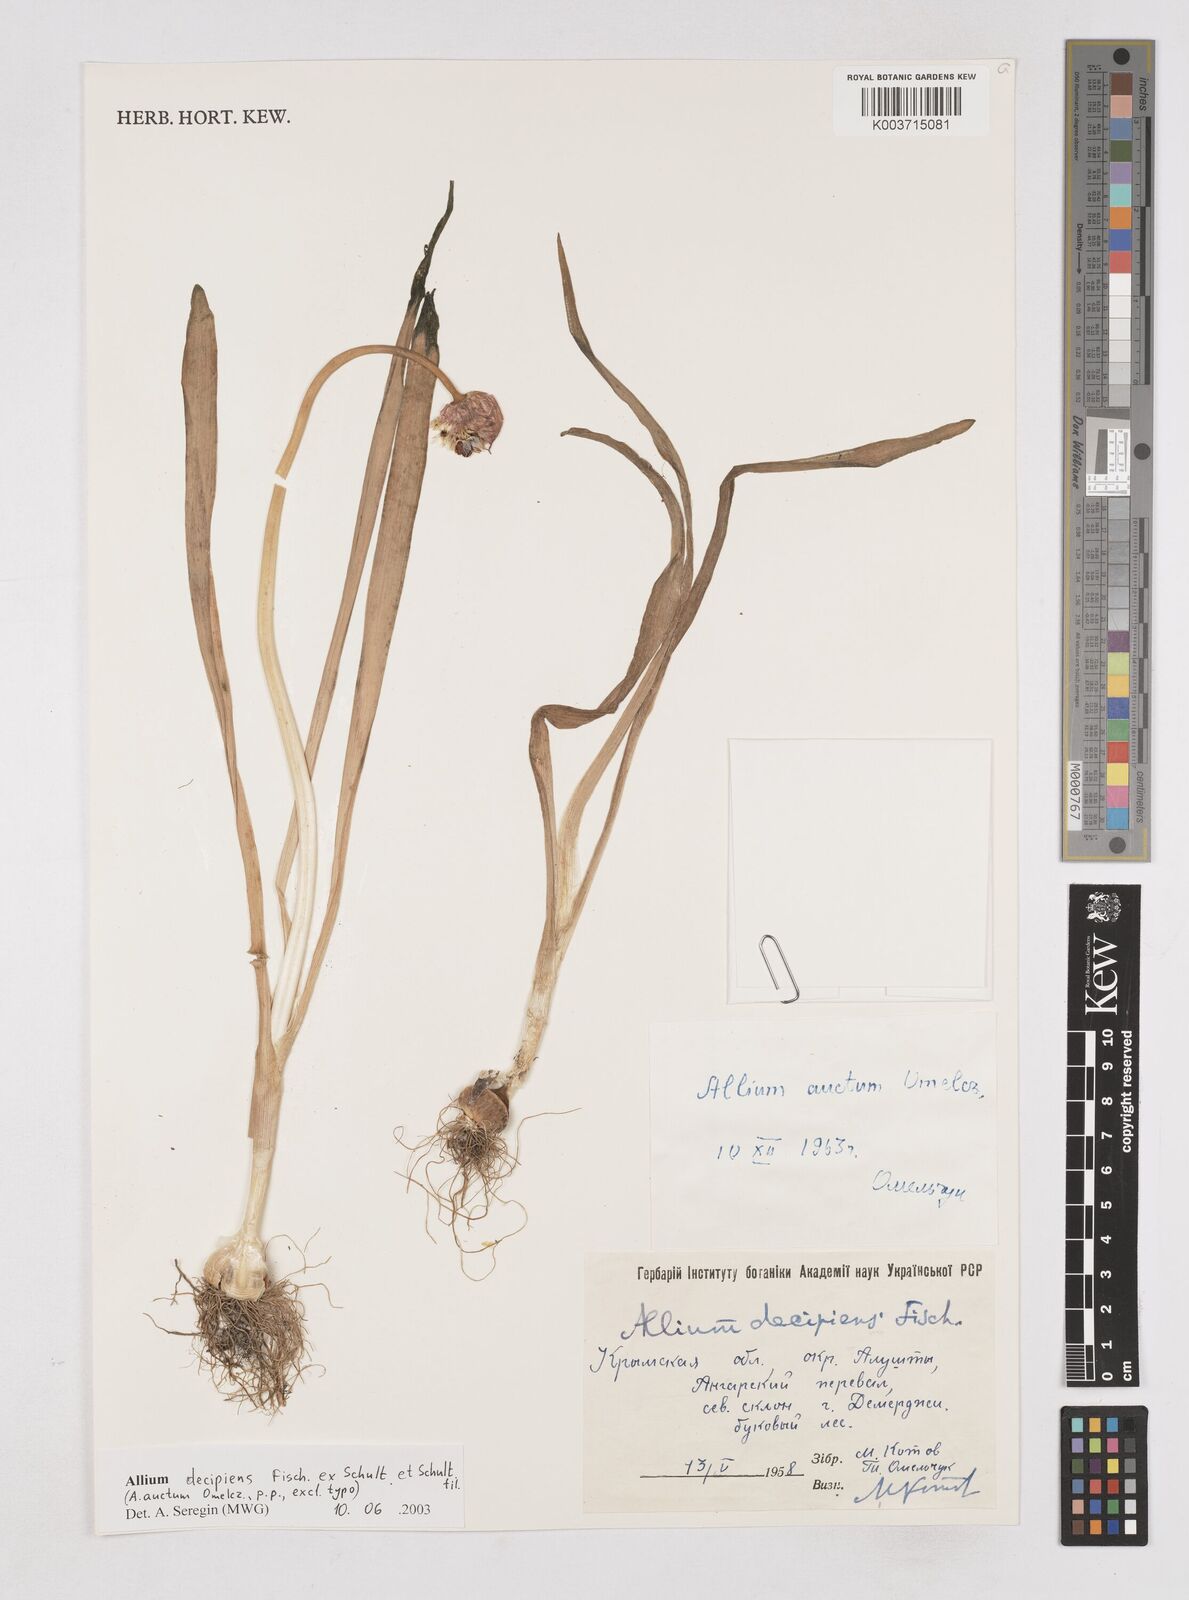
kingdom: Plantae
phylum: Tracheophyta
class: Liliopsida
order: Asparagales
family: Amaryllidaceae
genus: Allium
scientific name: Allium decipiens
